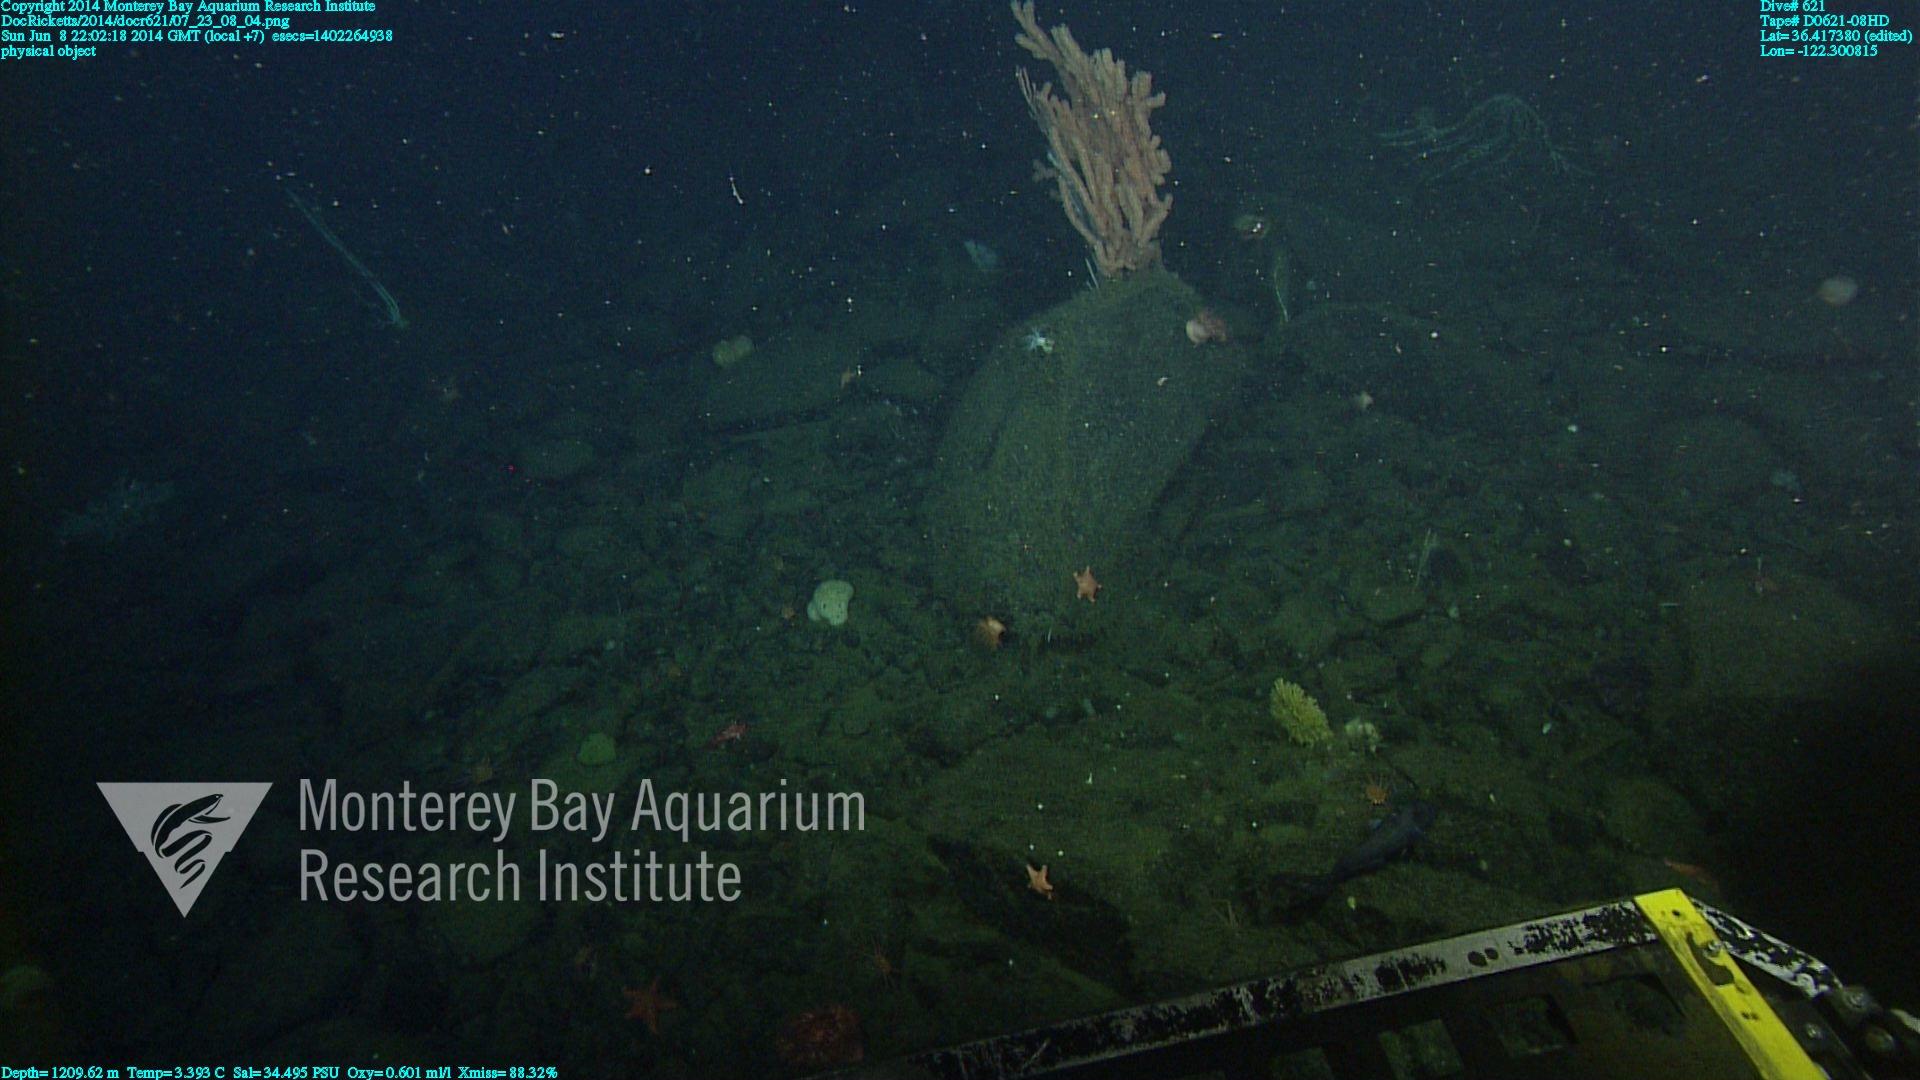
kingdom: Animalia
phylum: Cnidaria
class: Anthozoa
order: Scleralcyonacea
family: Keratoisididae
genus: Keratoisis
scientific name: Keratoisis
